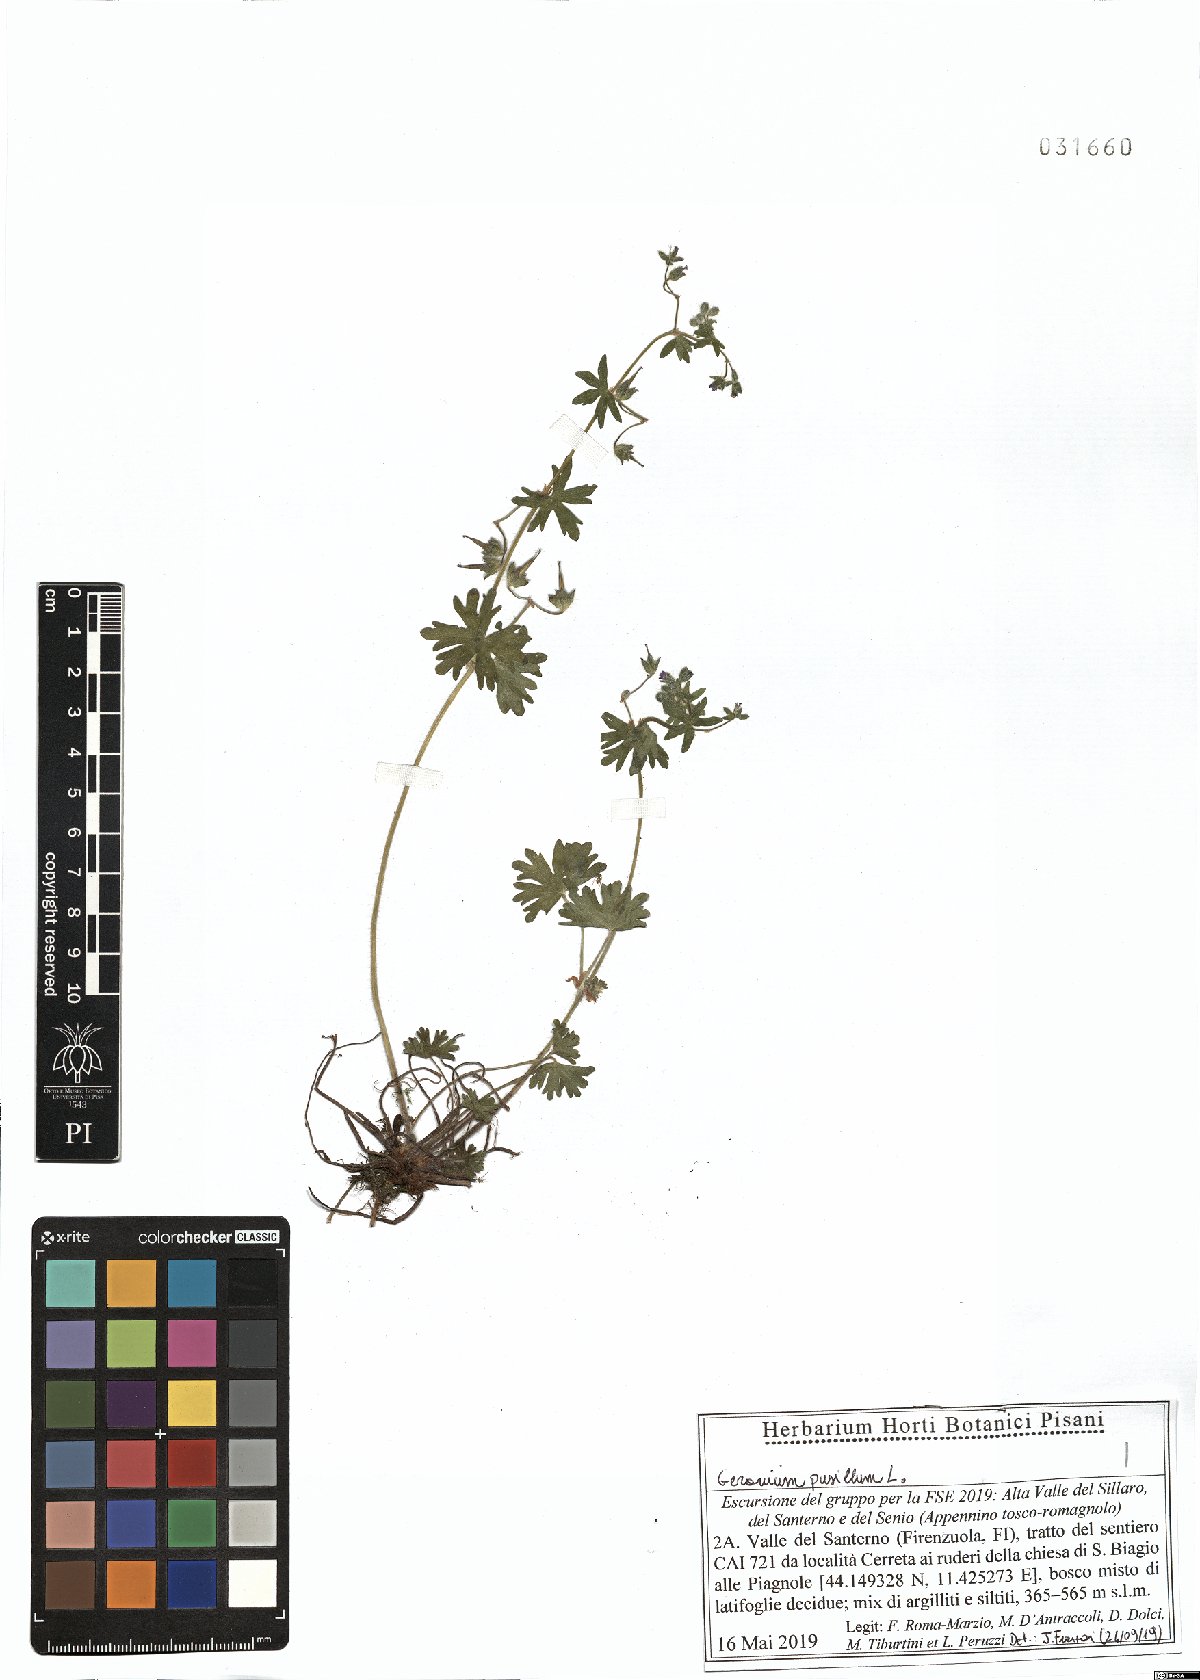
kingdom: Plantae
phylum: Tracheophyta
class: Magnoliopsida
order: Geraniales
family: Geraniaceae
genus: Geranium
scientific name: Geranium pusillum
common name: Small geranium
